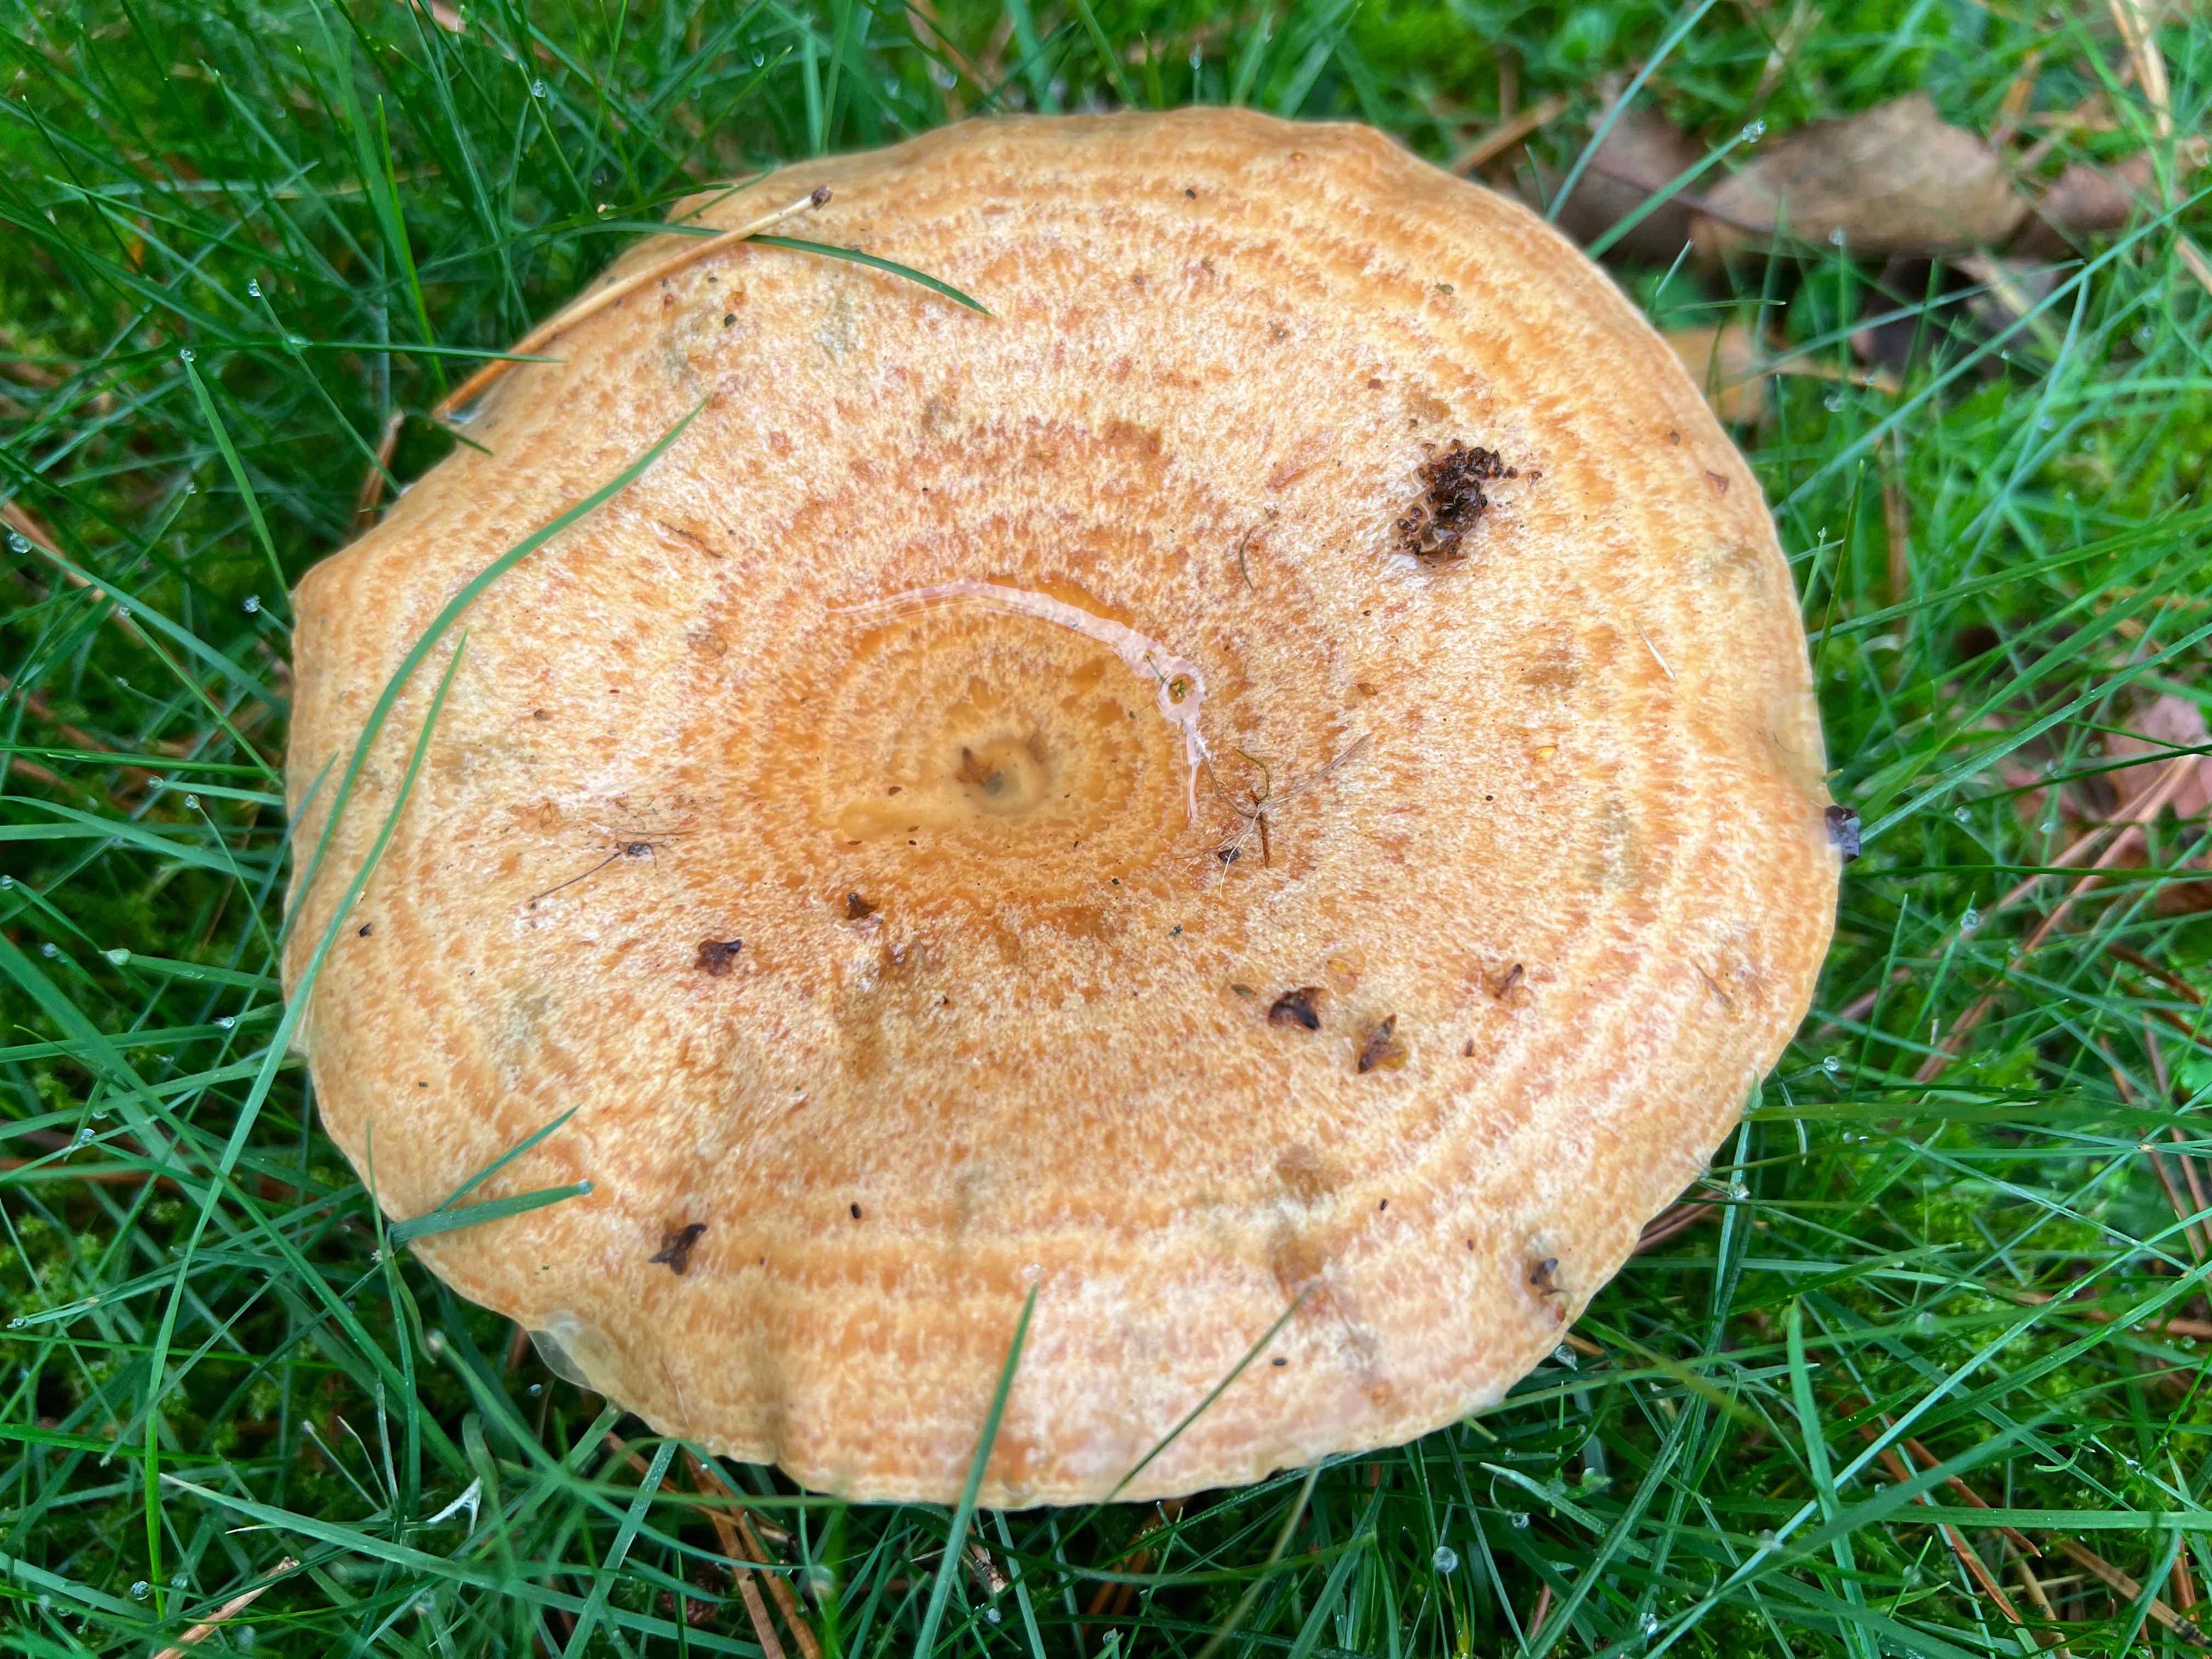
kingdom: Fungi
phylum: Basidiomycota
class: Agaricomycetes
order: Russulales
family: Russulaceae
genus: Lactarius
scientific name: Lactarius deliciosus
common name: velsmagende mælkehat
